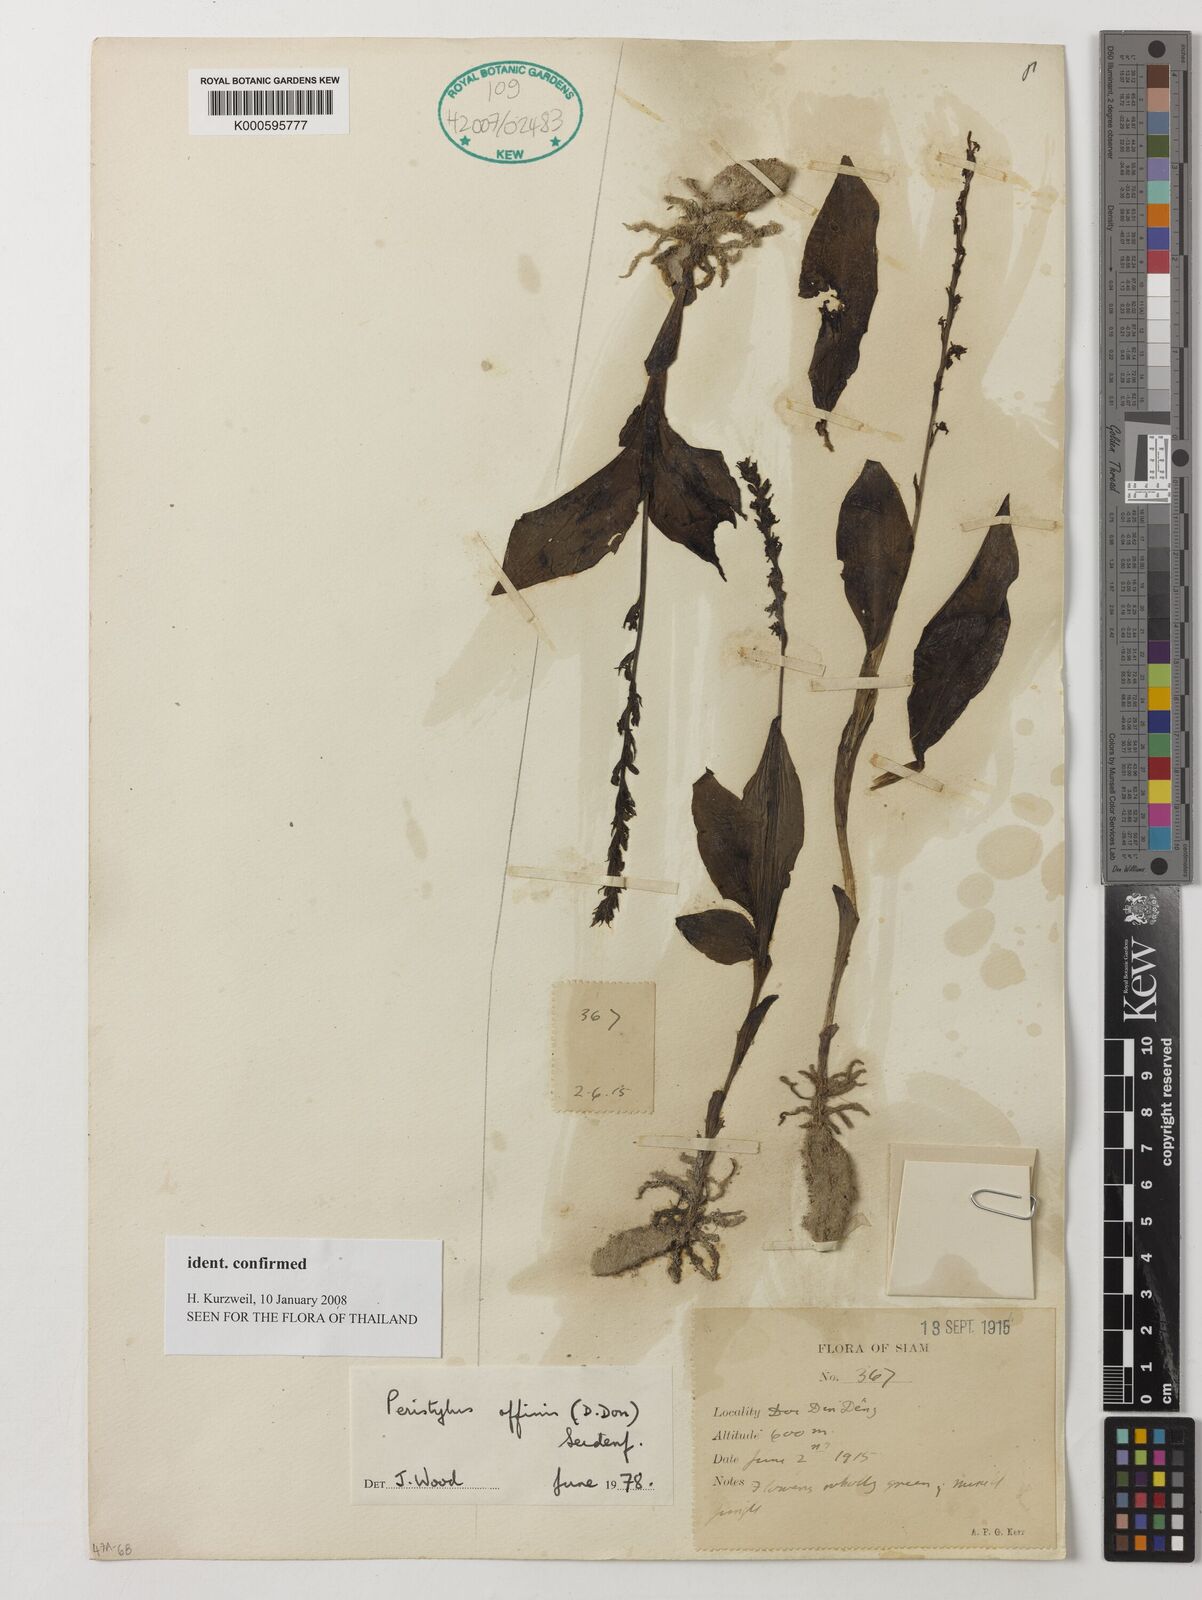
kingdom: Plantae
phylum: Tracheophyta
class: Liliopsida
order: Asparagales
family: Orchidaceae
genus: Peristylus
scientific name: Peristylus affinis
